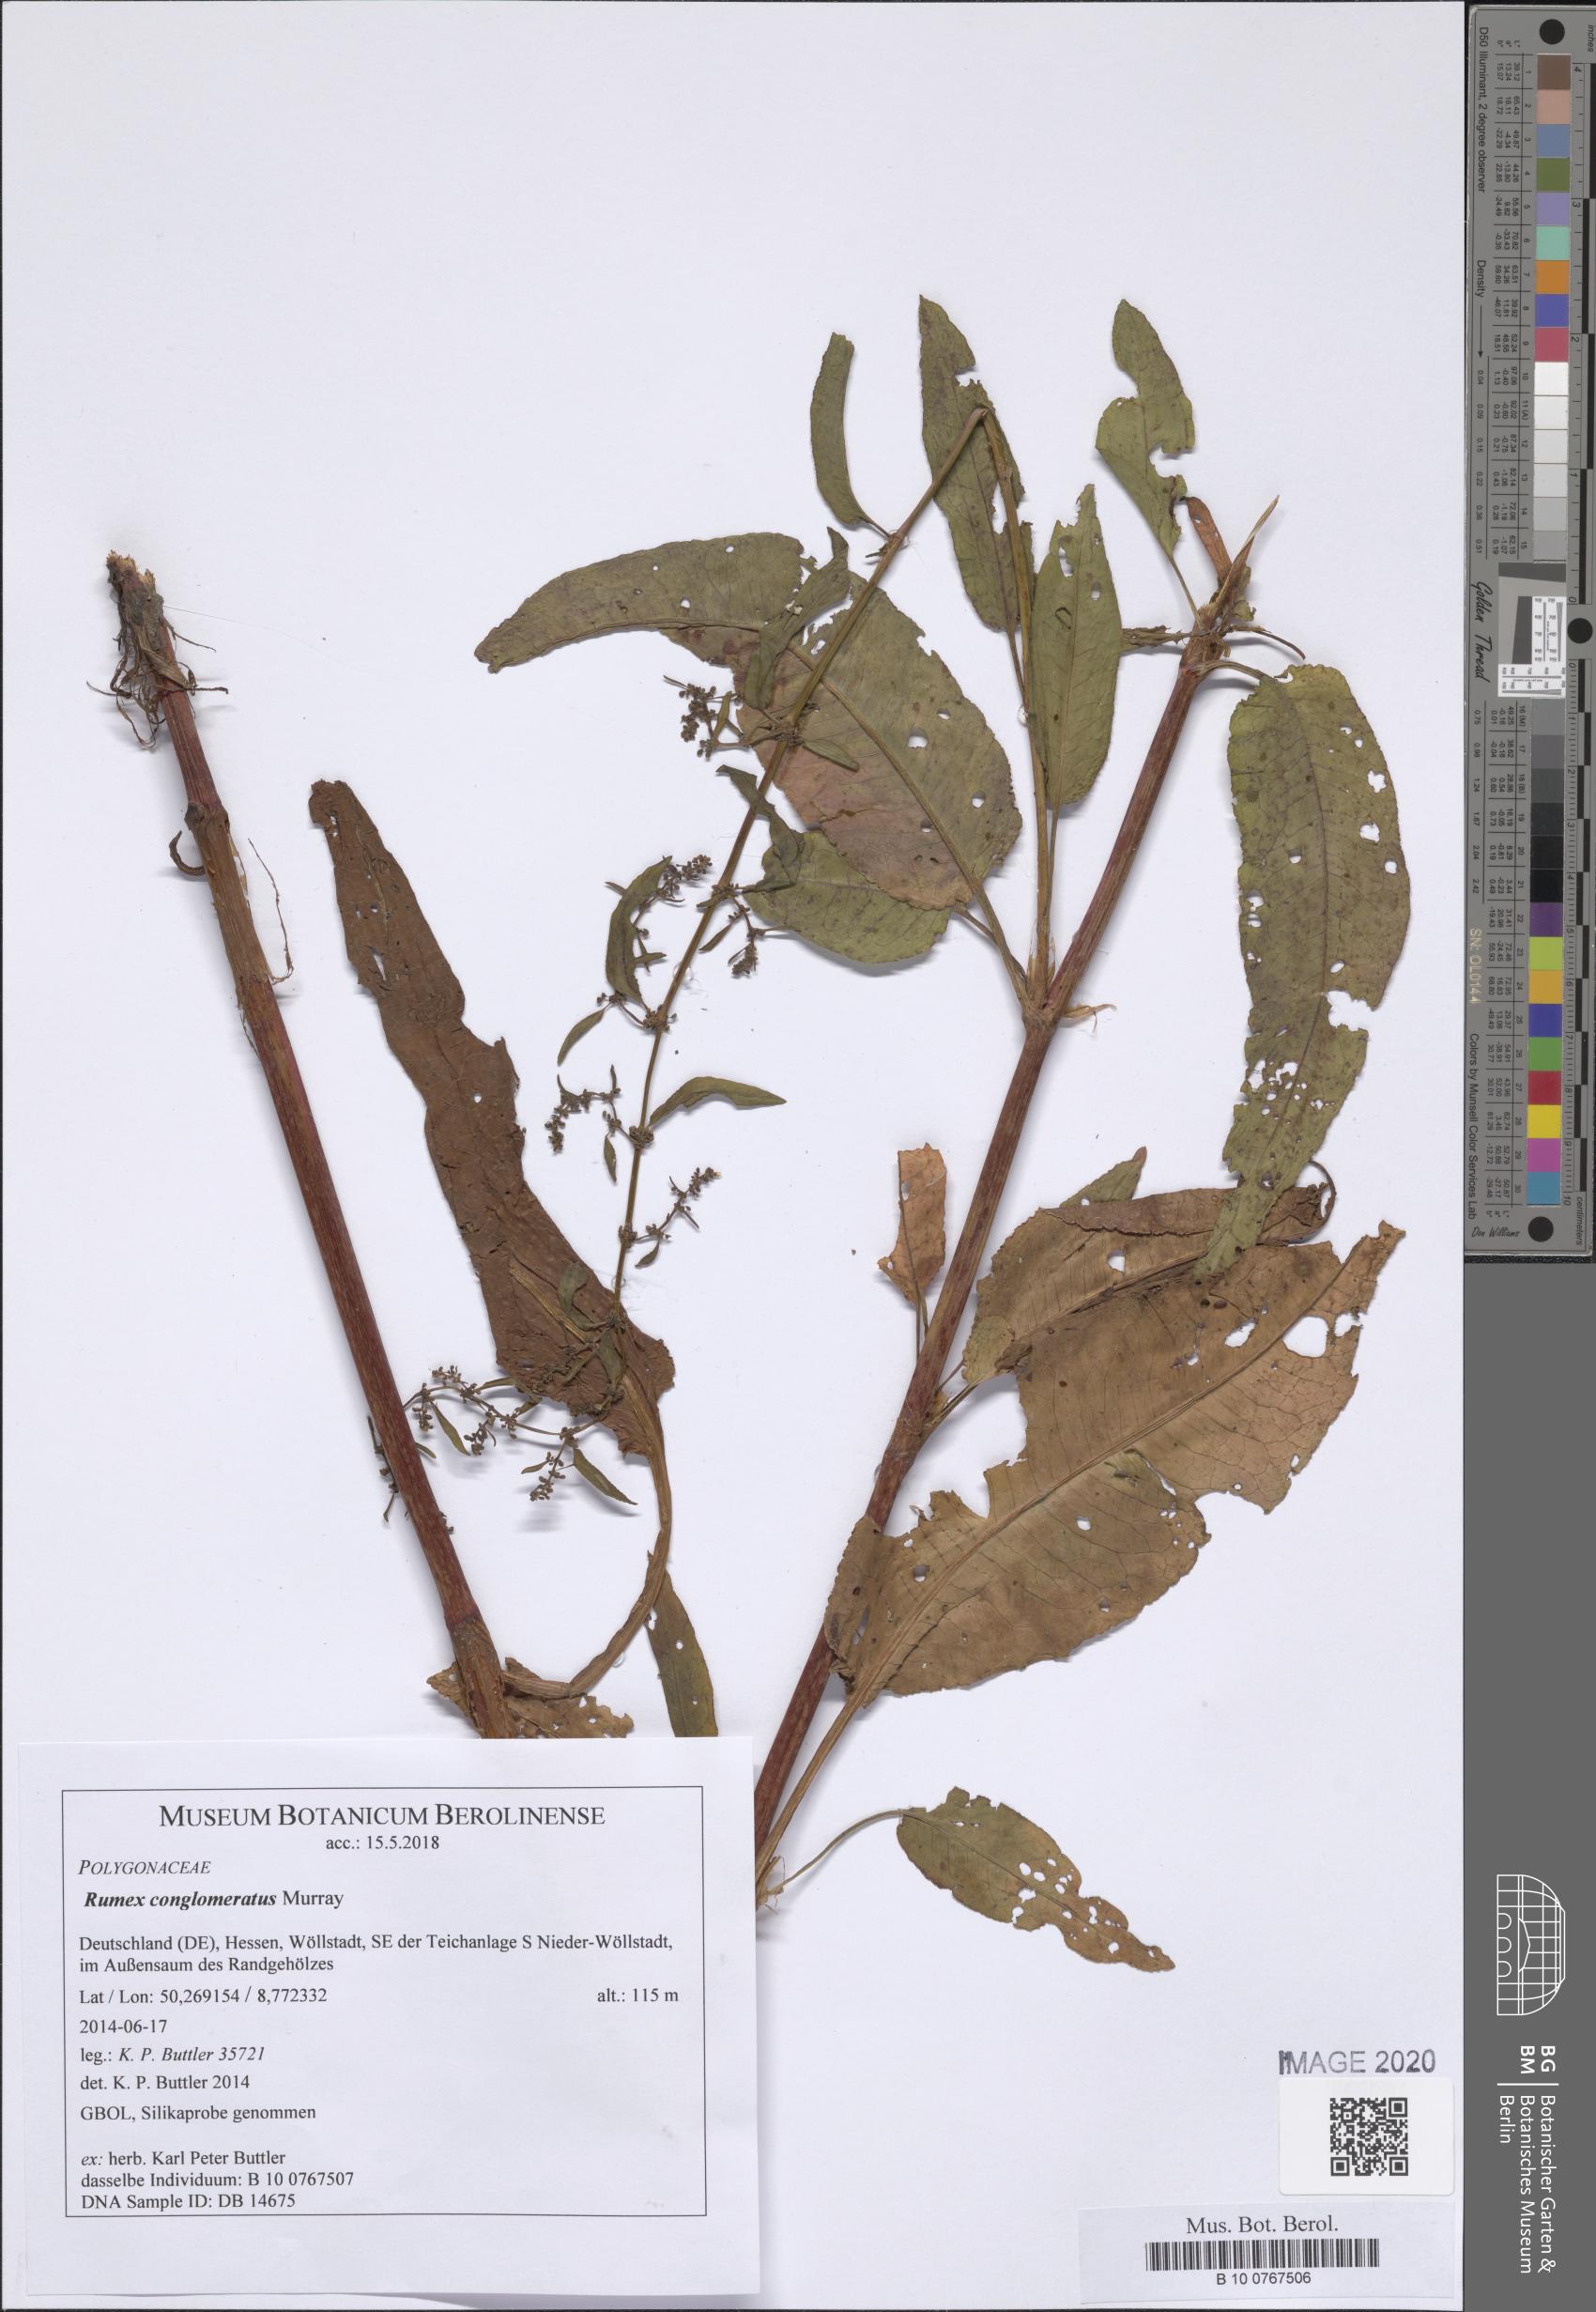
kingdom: Plantae
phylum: Tracheophyta
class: Magnoliopsida
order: Caryophyllales
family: Polygonaceae
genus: Rumex
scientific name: Rumex conglomeratus
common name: Clustered dock
